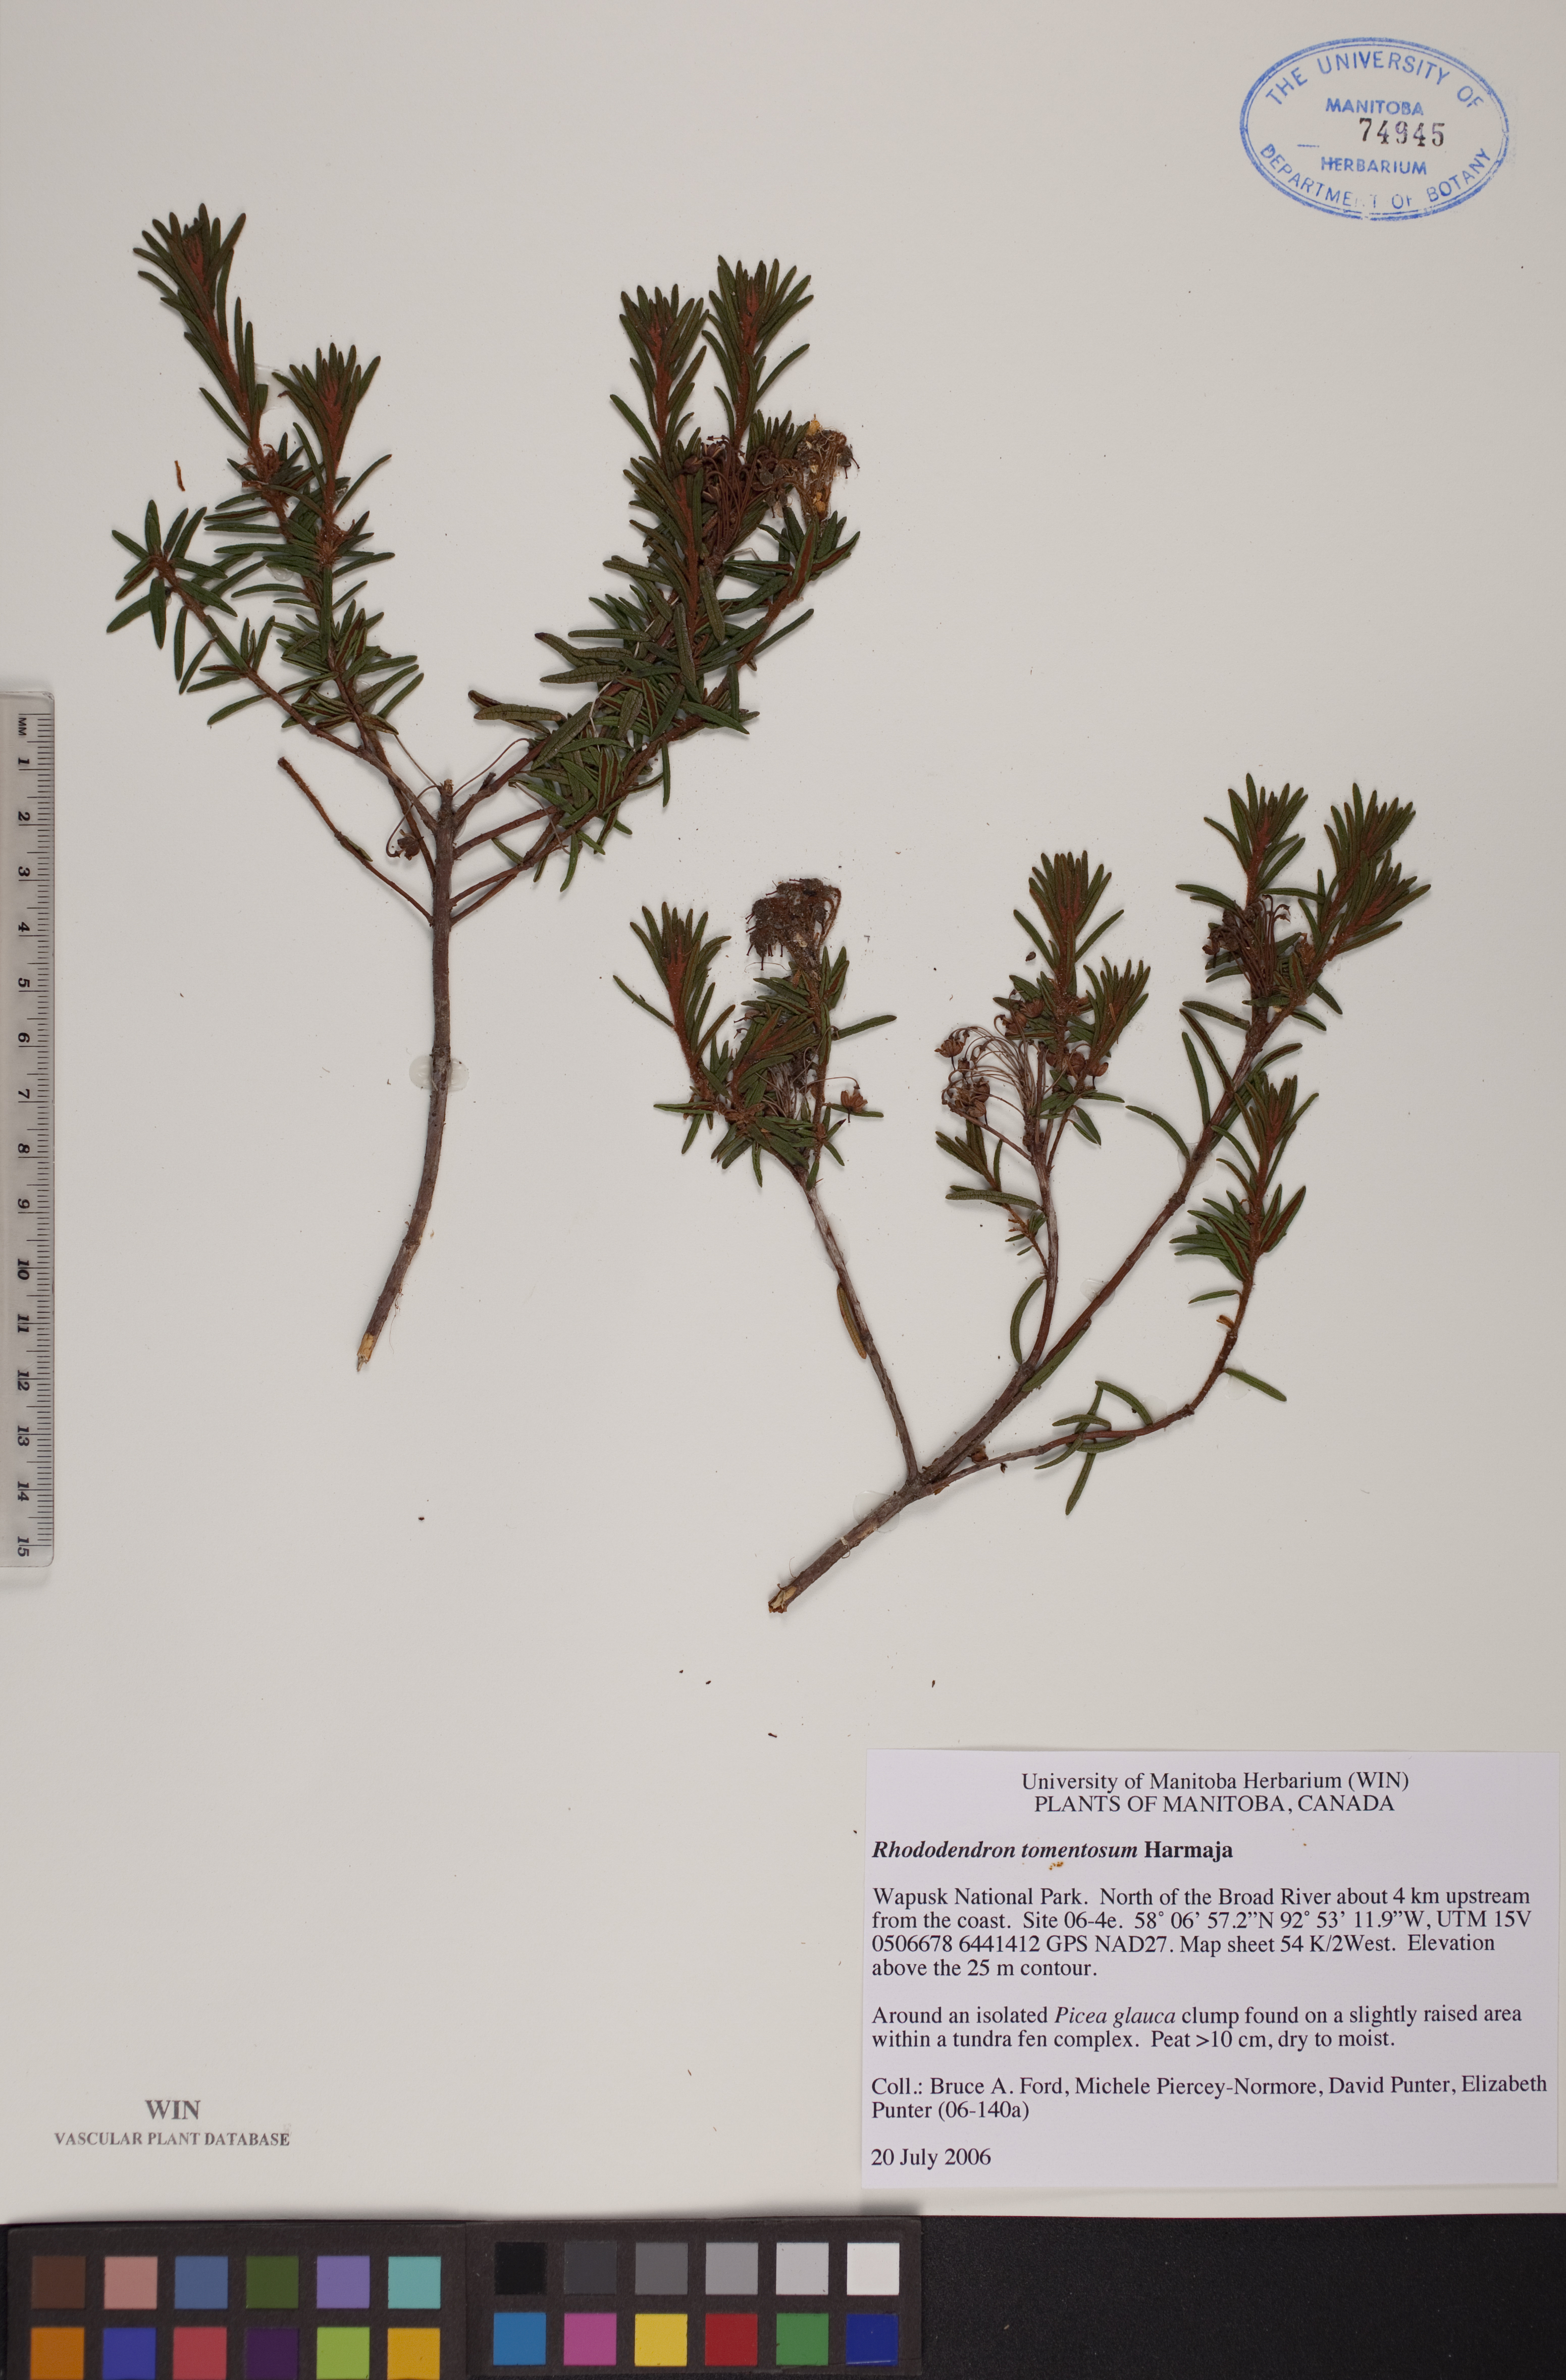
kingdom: Plantae
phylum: Tracheophyta
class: Magnoliopsida
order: Ericales
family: Ericaceae
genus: Rhododendron
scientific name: Rhododendron tomentosum
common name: Marsh labrador tea
